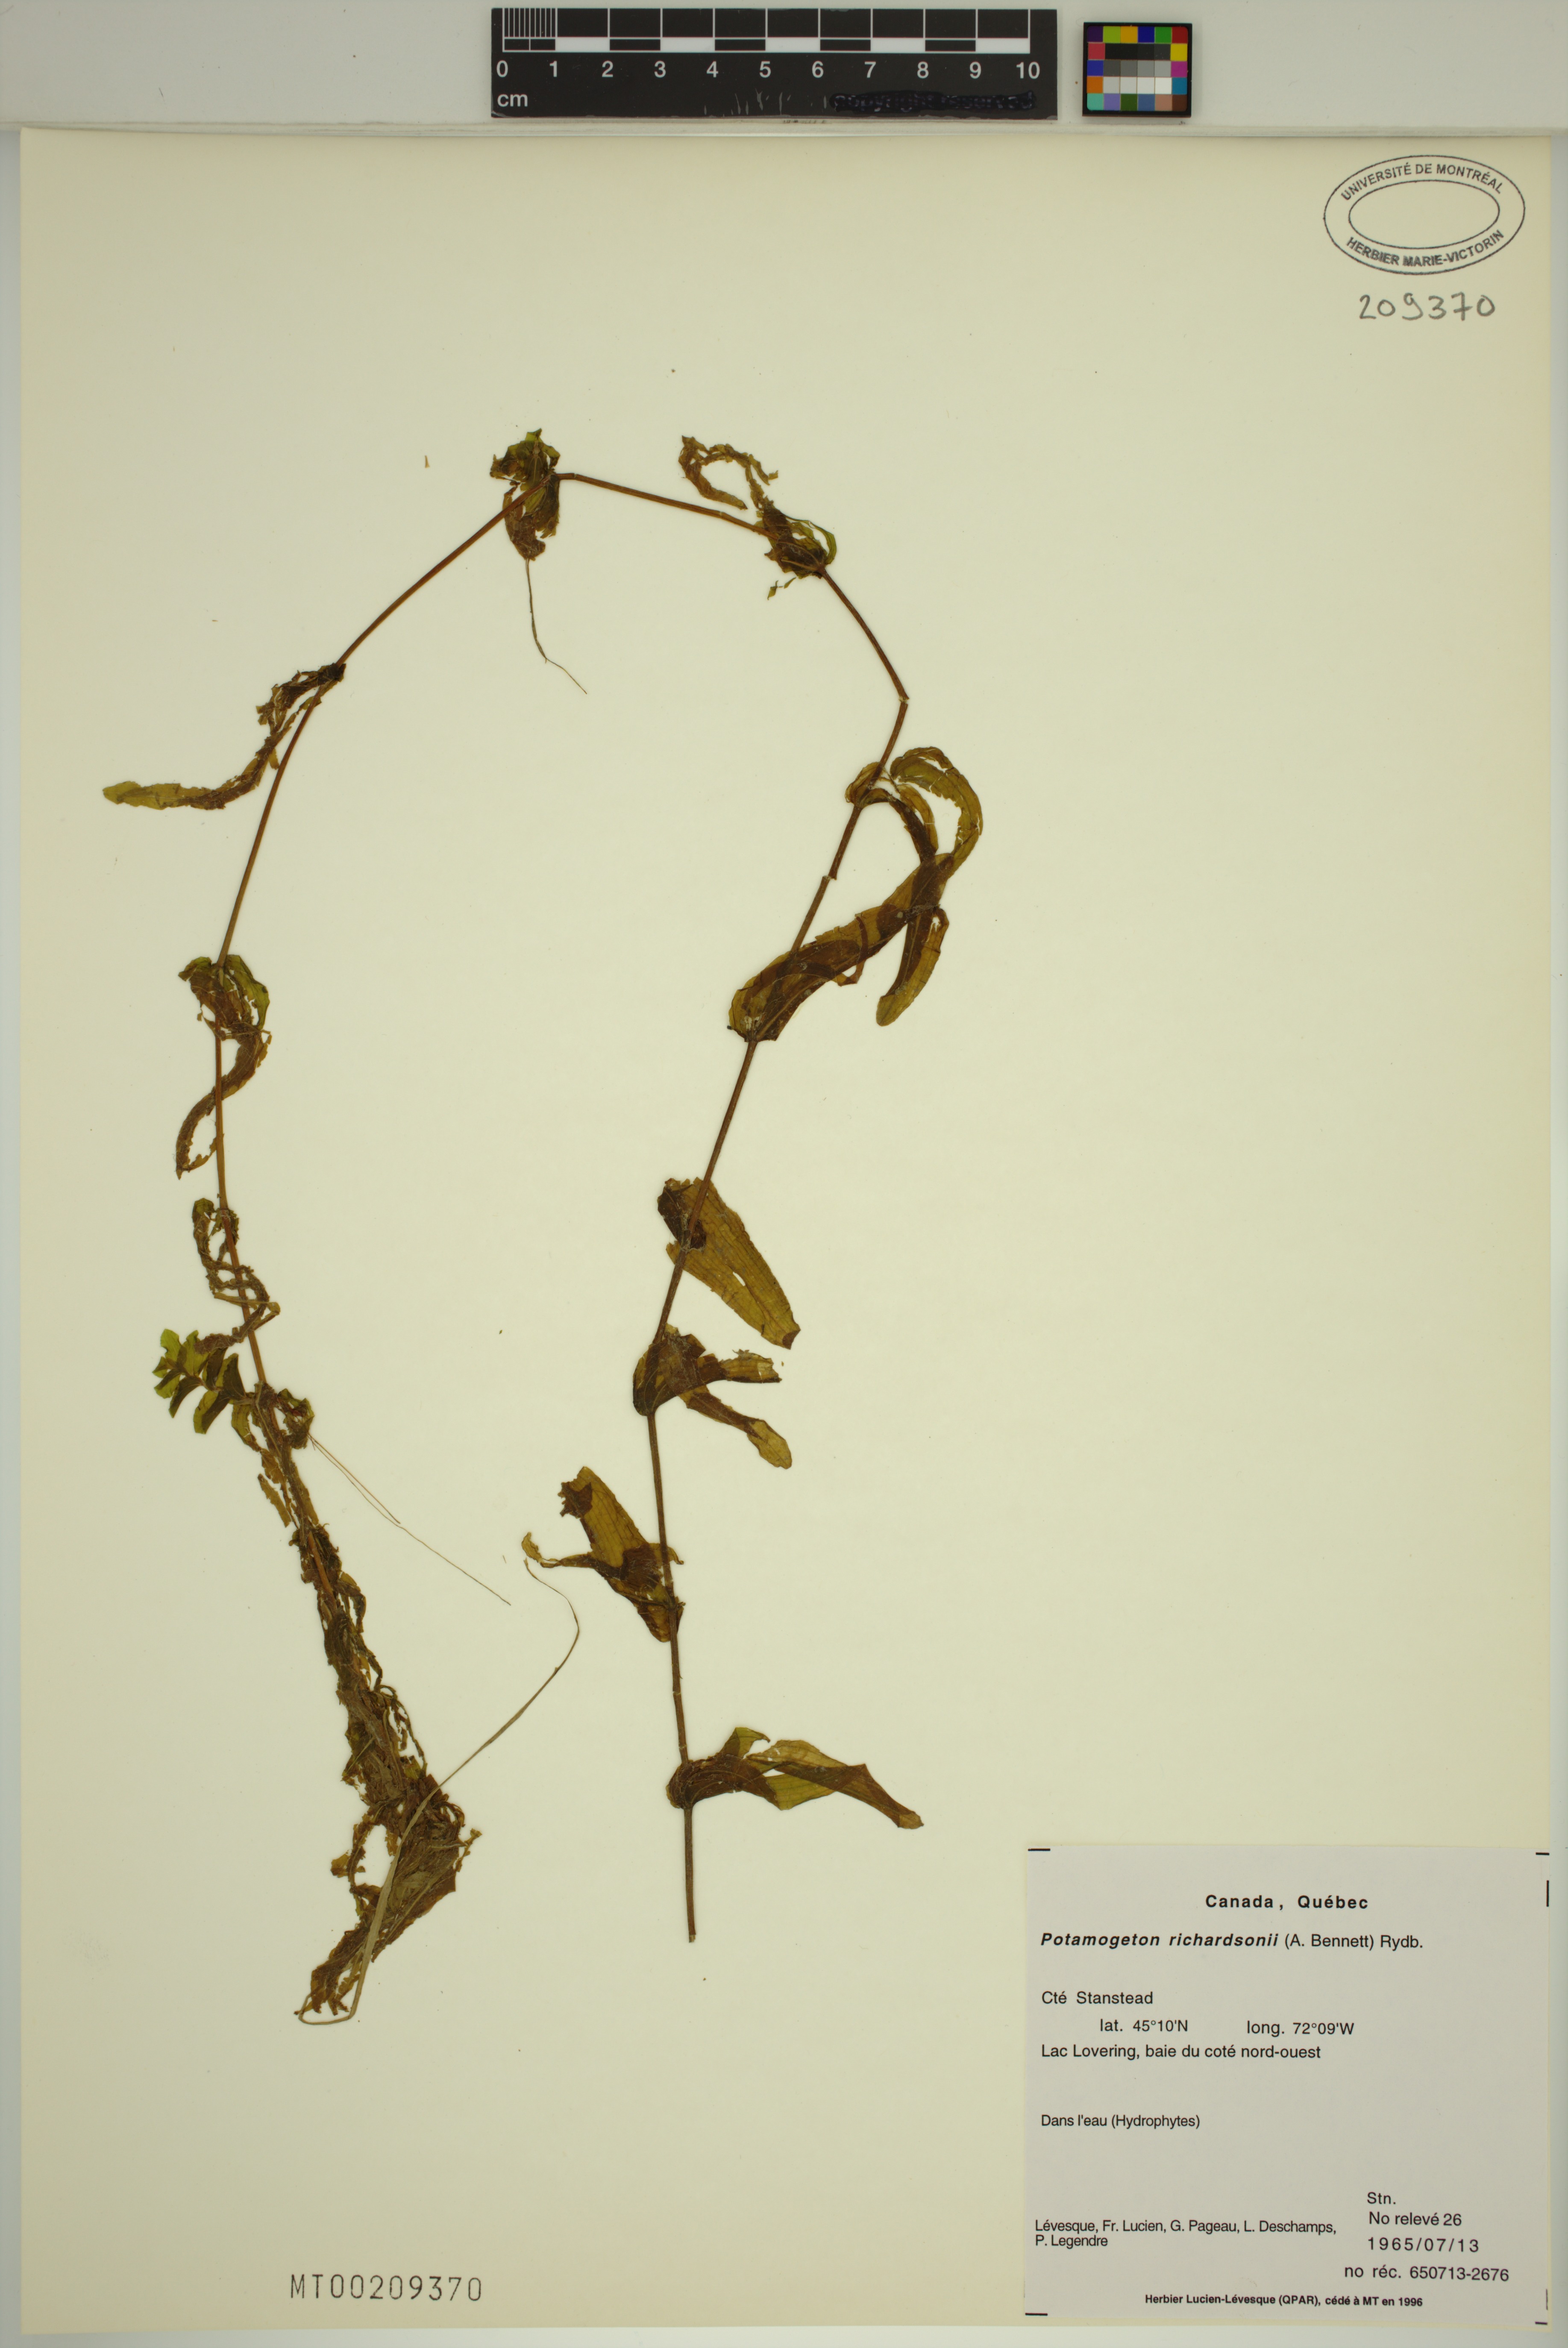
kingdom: Plantae
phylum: Tracheophyta
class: Liliopsida
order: Alismatales
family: Potamogetonaceae
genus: Potamogeton
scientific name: Potamogeton richardsonii
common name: Richardson's pondweed
